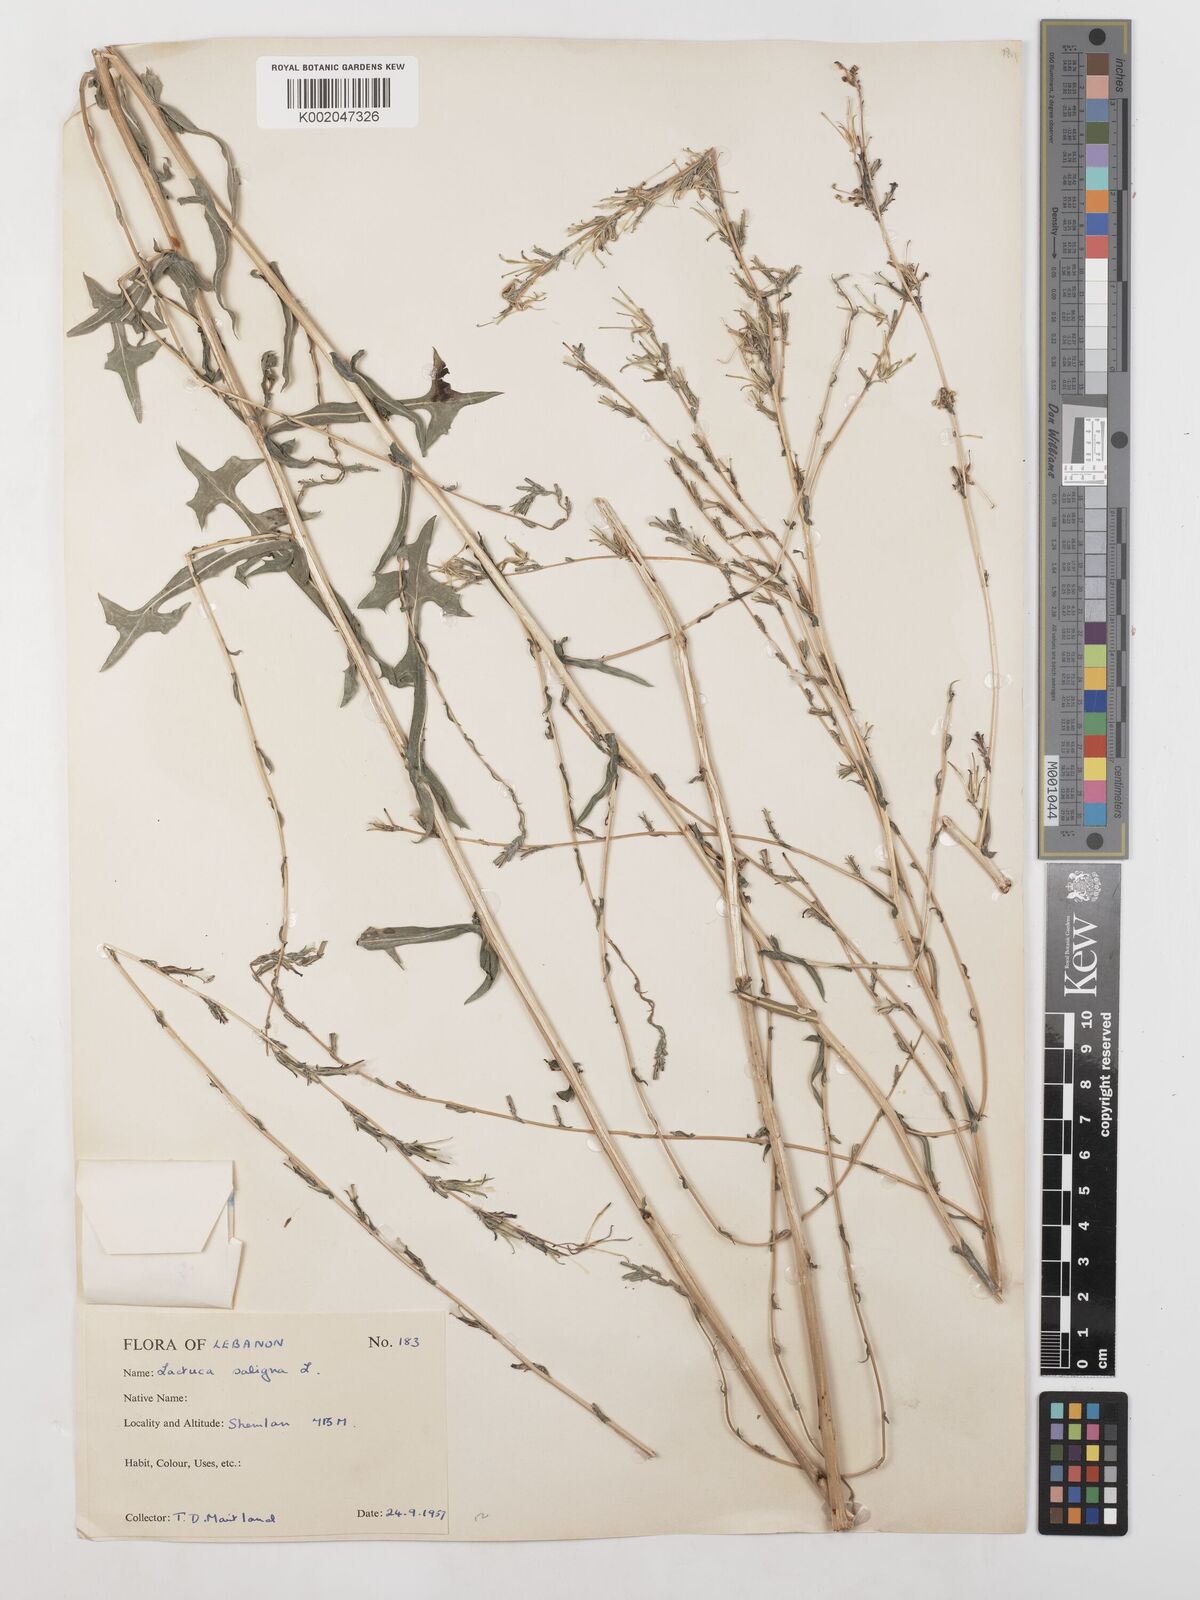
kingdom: Plantae
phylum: Tracheophyta
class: Magnoliopsida
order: Asterales
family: Asteraceae
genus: Lactuca
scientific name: Lactuca saligna
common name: Wild lettuce
